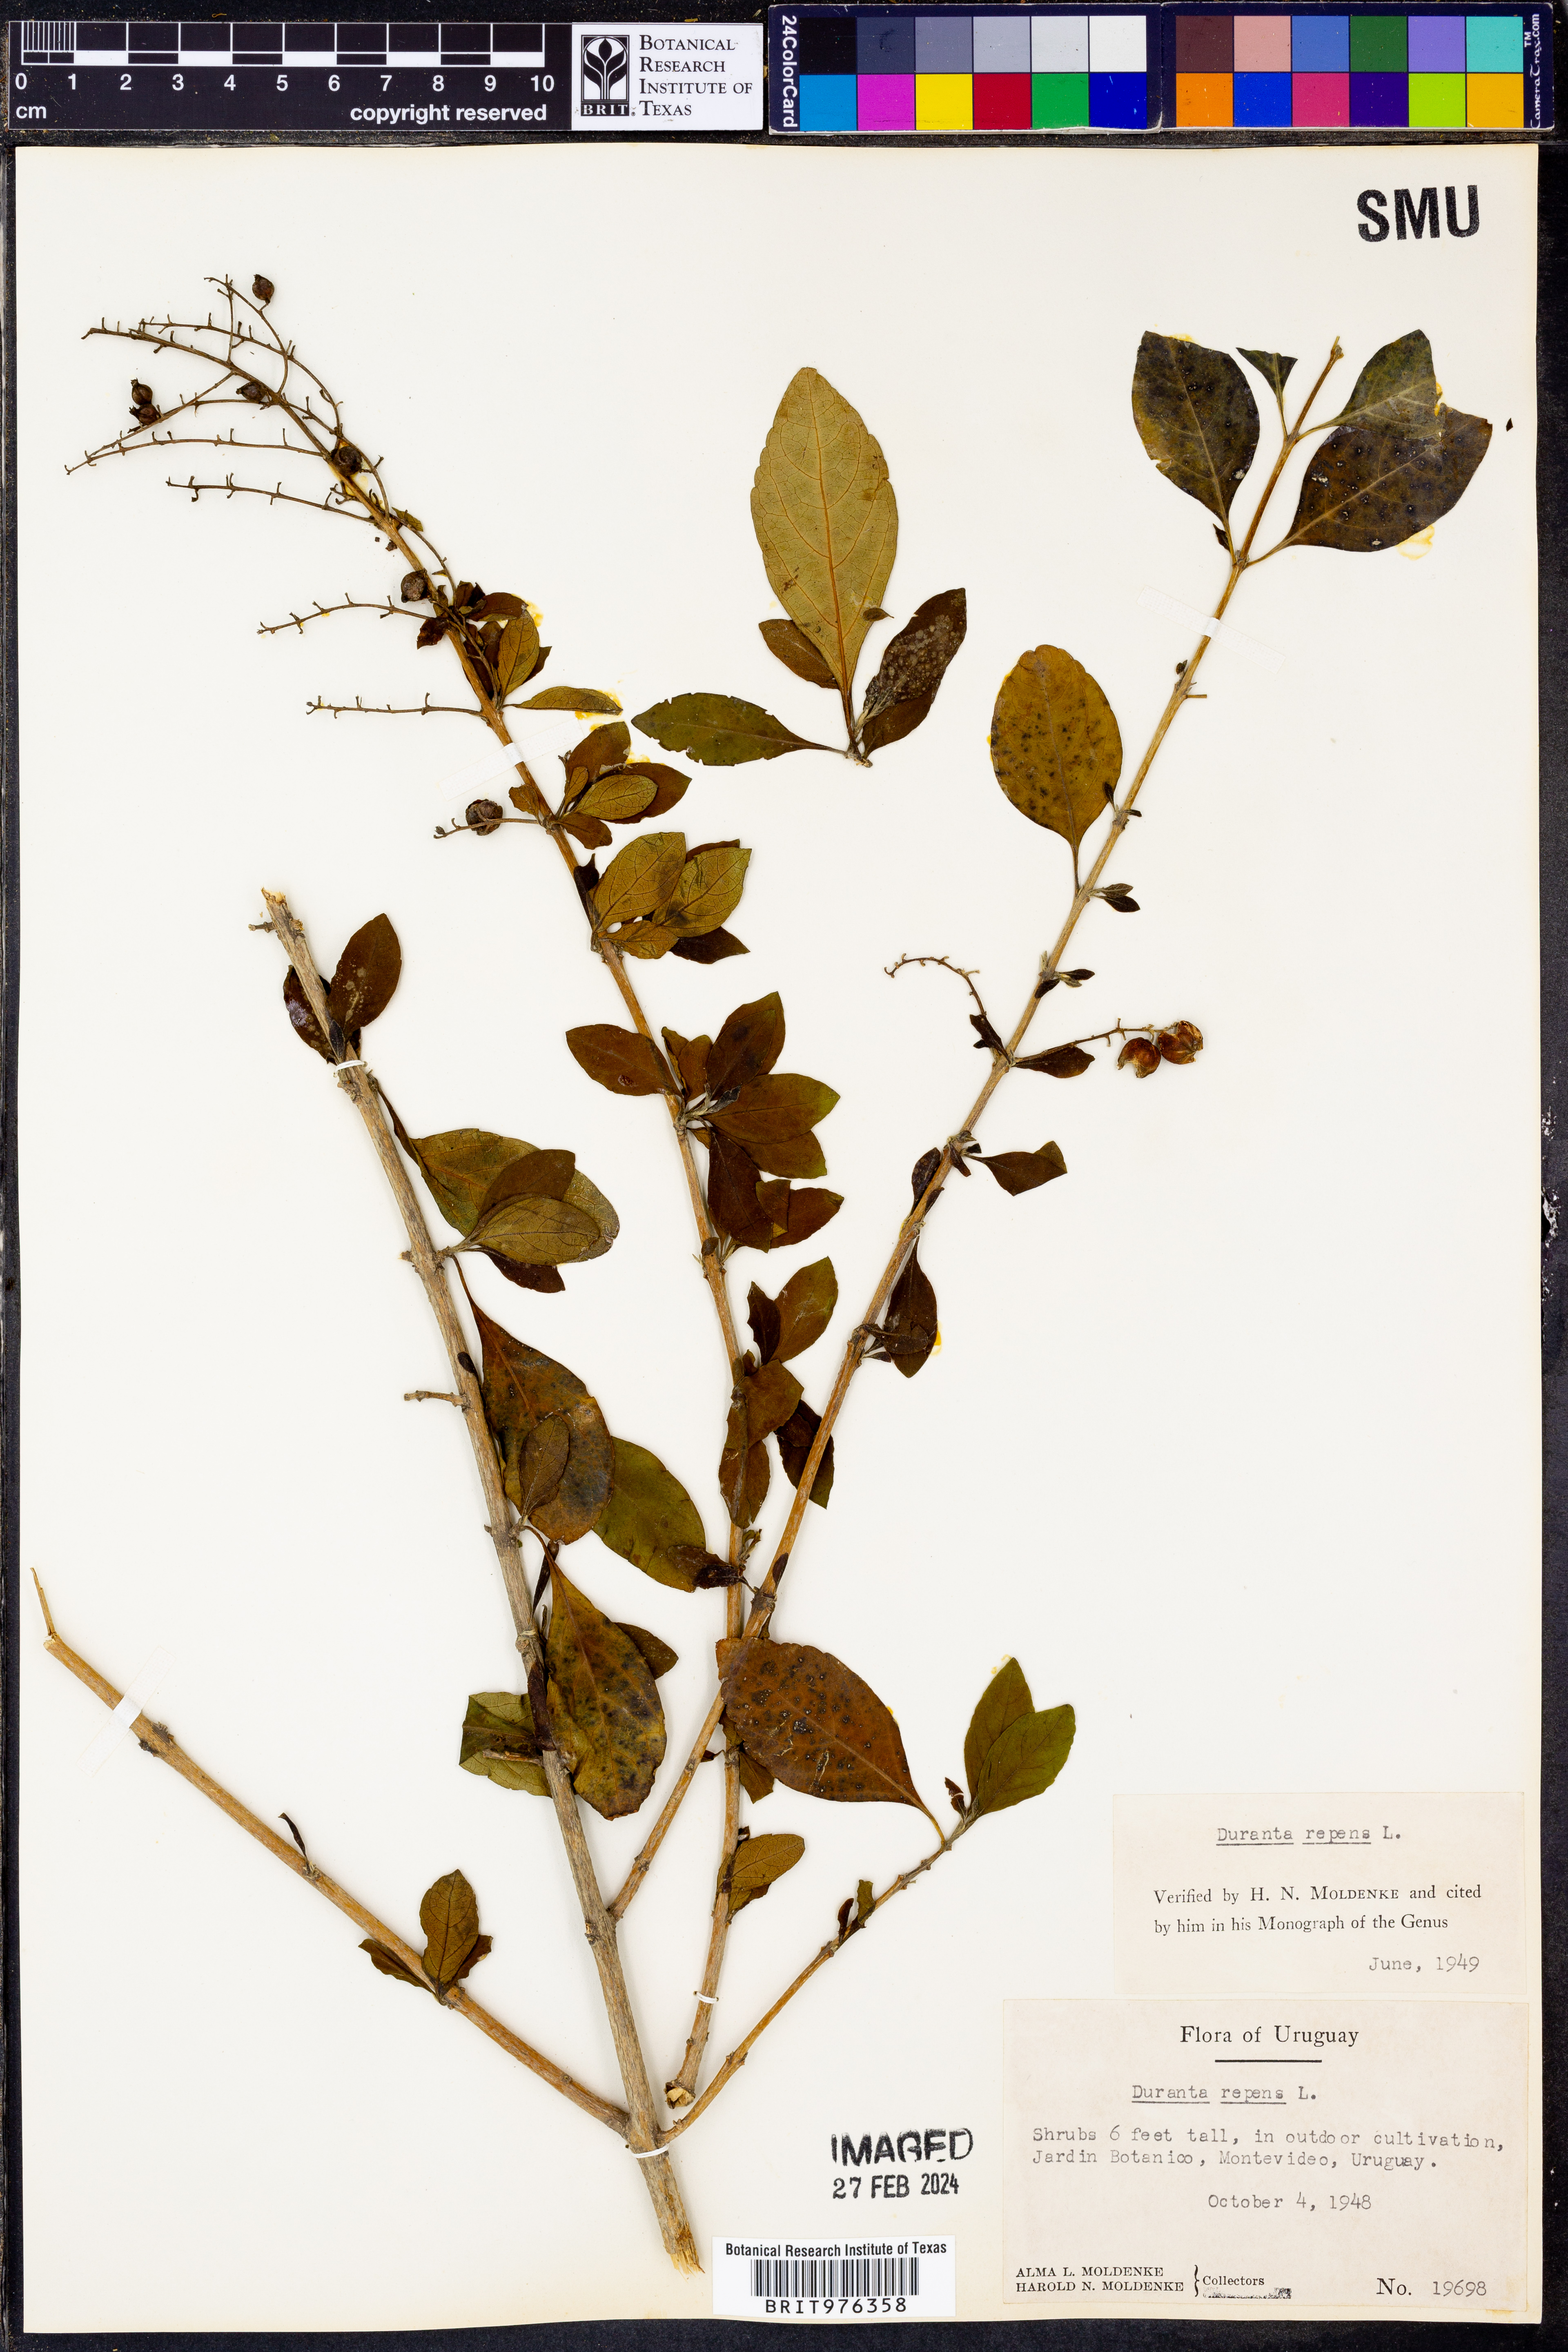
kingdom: Plantae
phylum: Tracheophyta
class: Magnoliopsida
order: Lamiales
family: Verbenaceae
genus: Duranta
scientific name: Duranta
